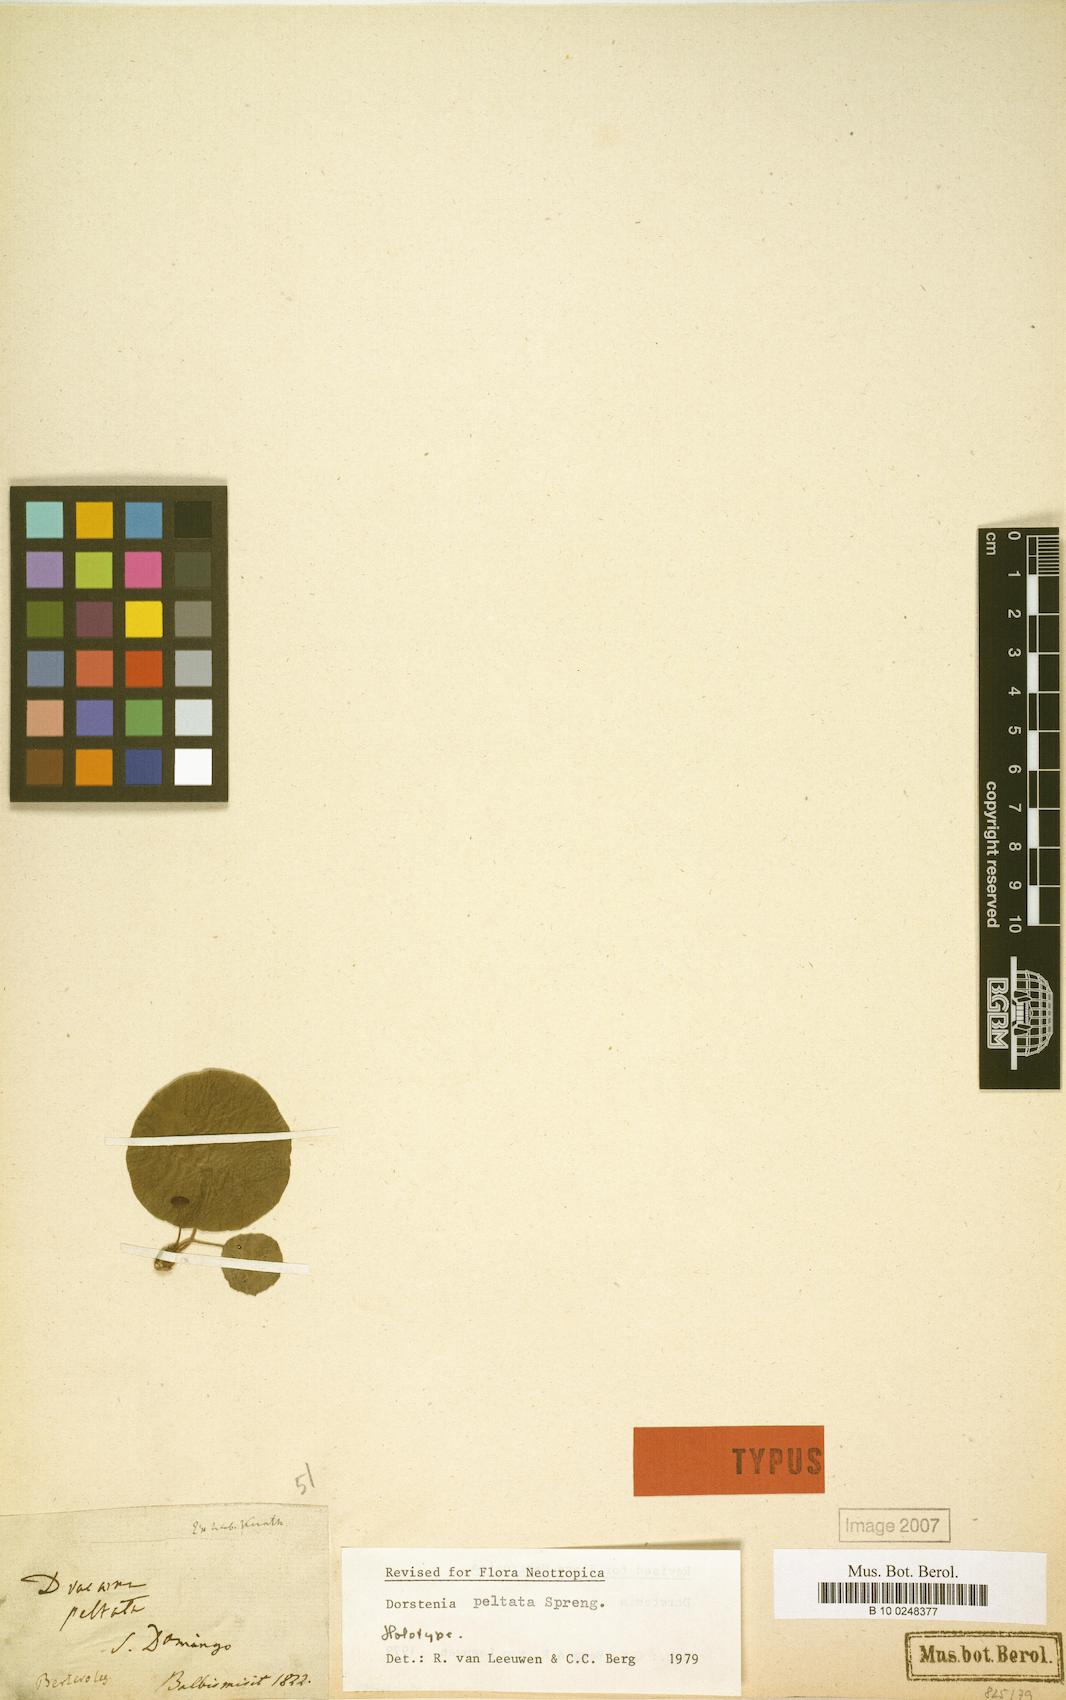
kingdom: Plantae
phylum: Tracheophyta
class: Magnoliopsida
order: Rosales
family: Moraceae
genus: Dorstenia
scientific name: Dorstenia peltata
